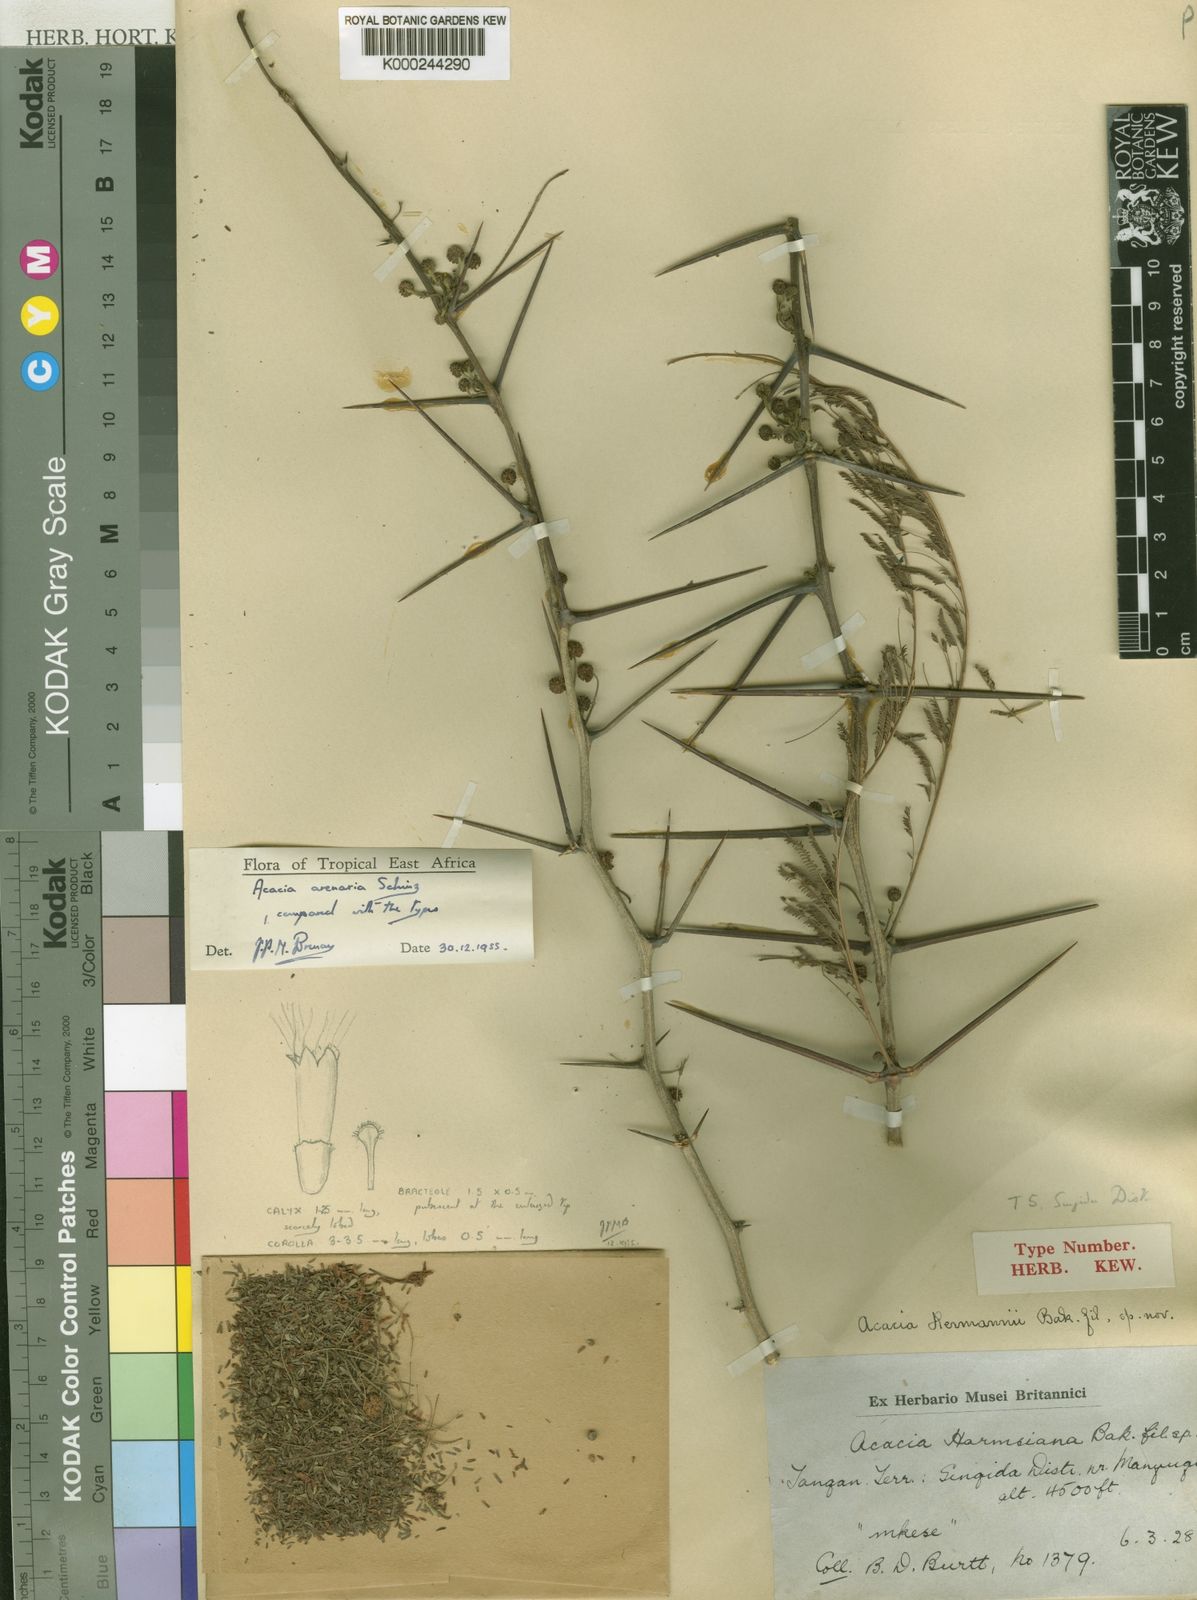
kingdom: Plantae
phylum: Tracheophyta
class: Magnoliopsida
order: Fabales
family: Fabaceae
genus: Vachellia
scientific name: Vachellia arenaria
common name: Sand acacia
